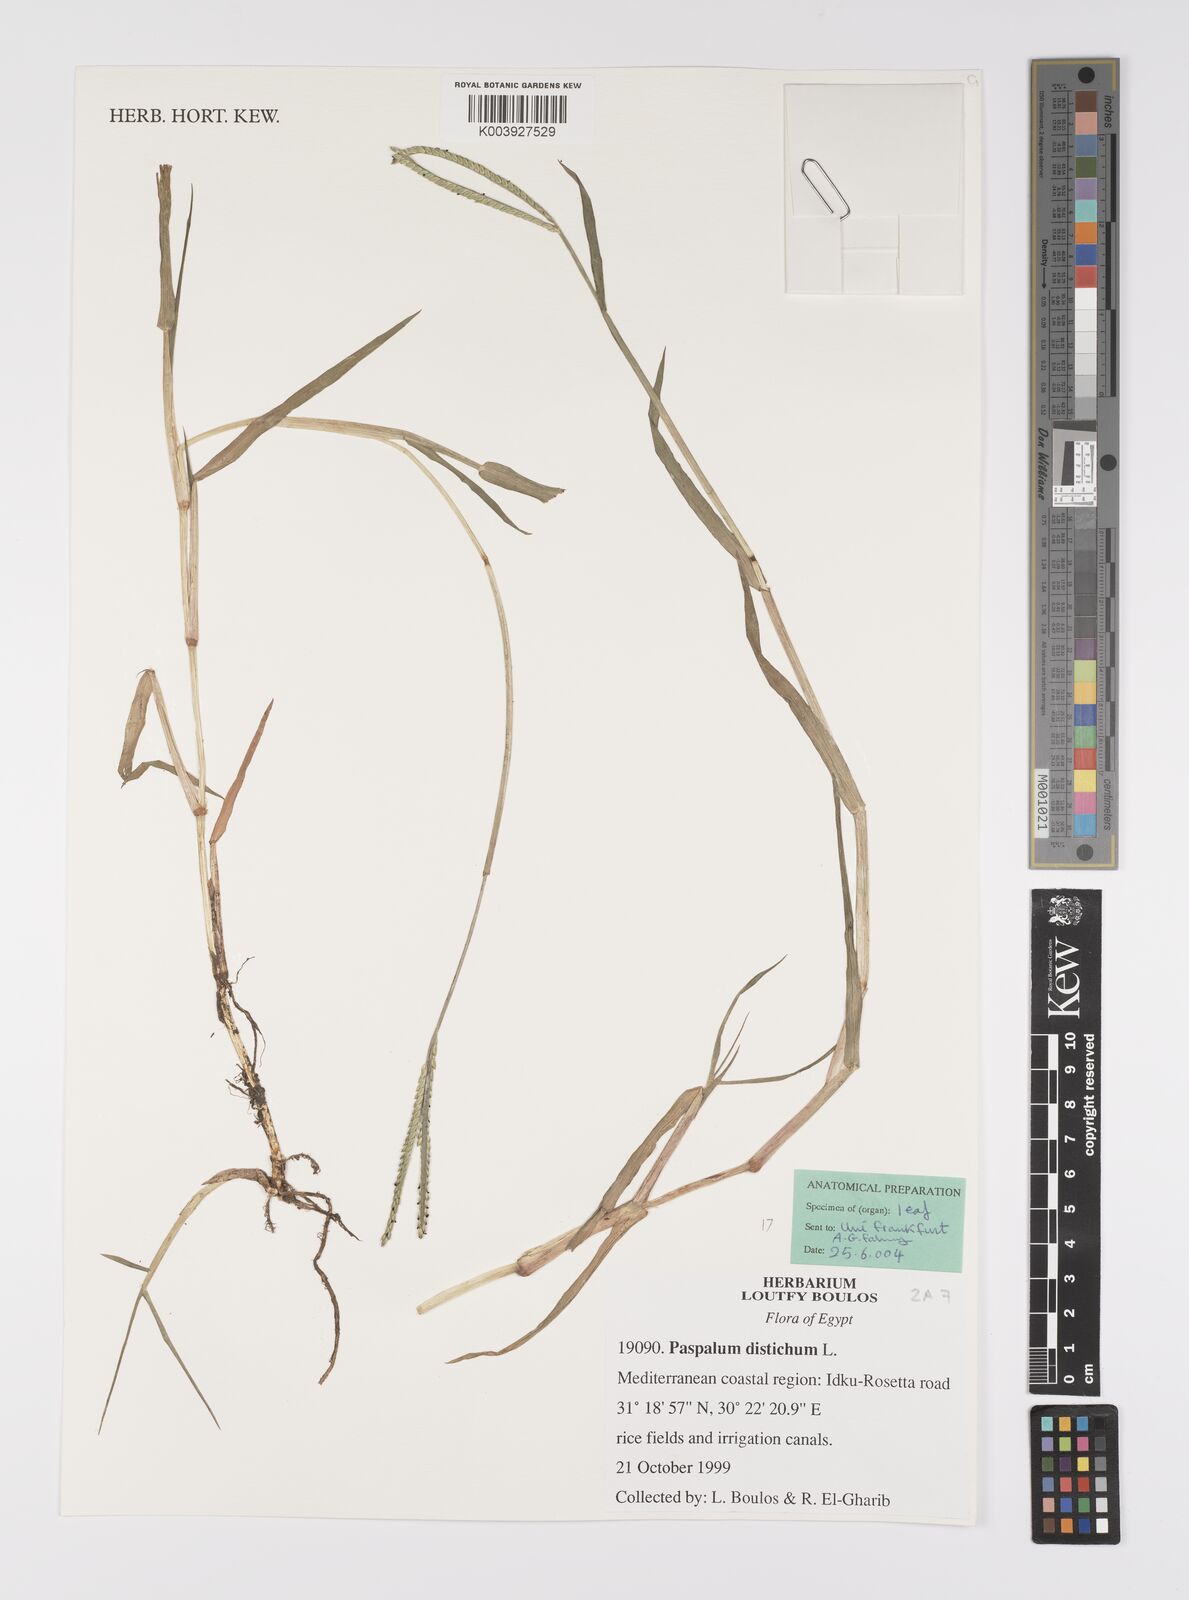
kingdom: Plantae
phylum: Tracheophyta
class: Liliopsida
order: Poales
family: Poaceae
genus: Paspalum
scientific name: Paspalum distichum
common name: Knotgrass
